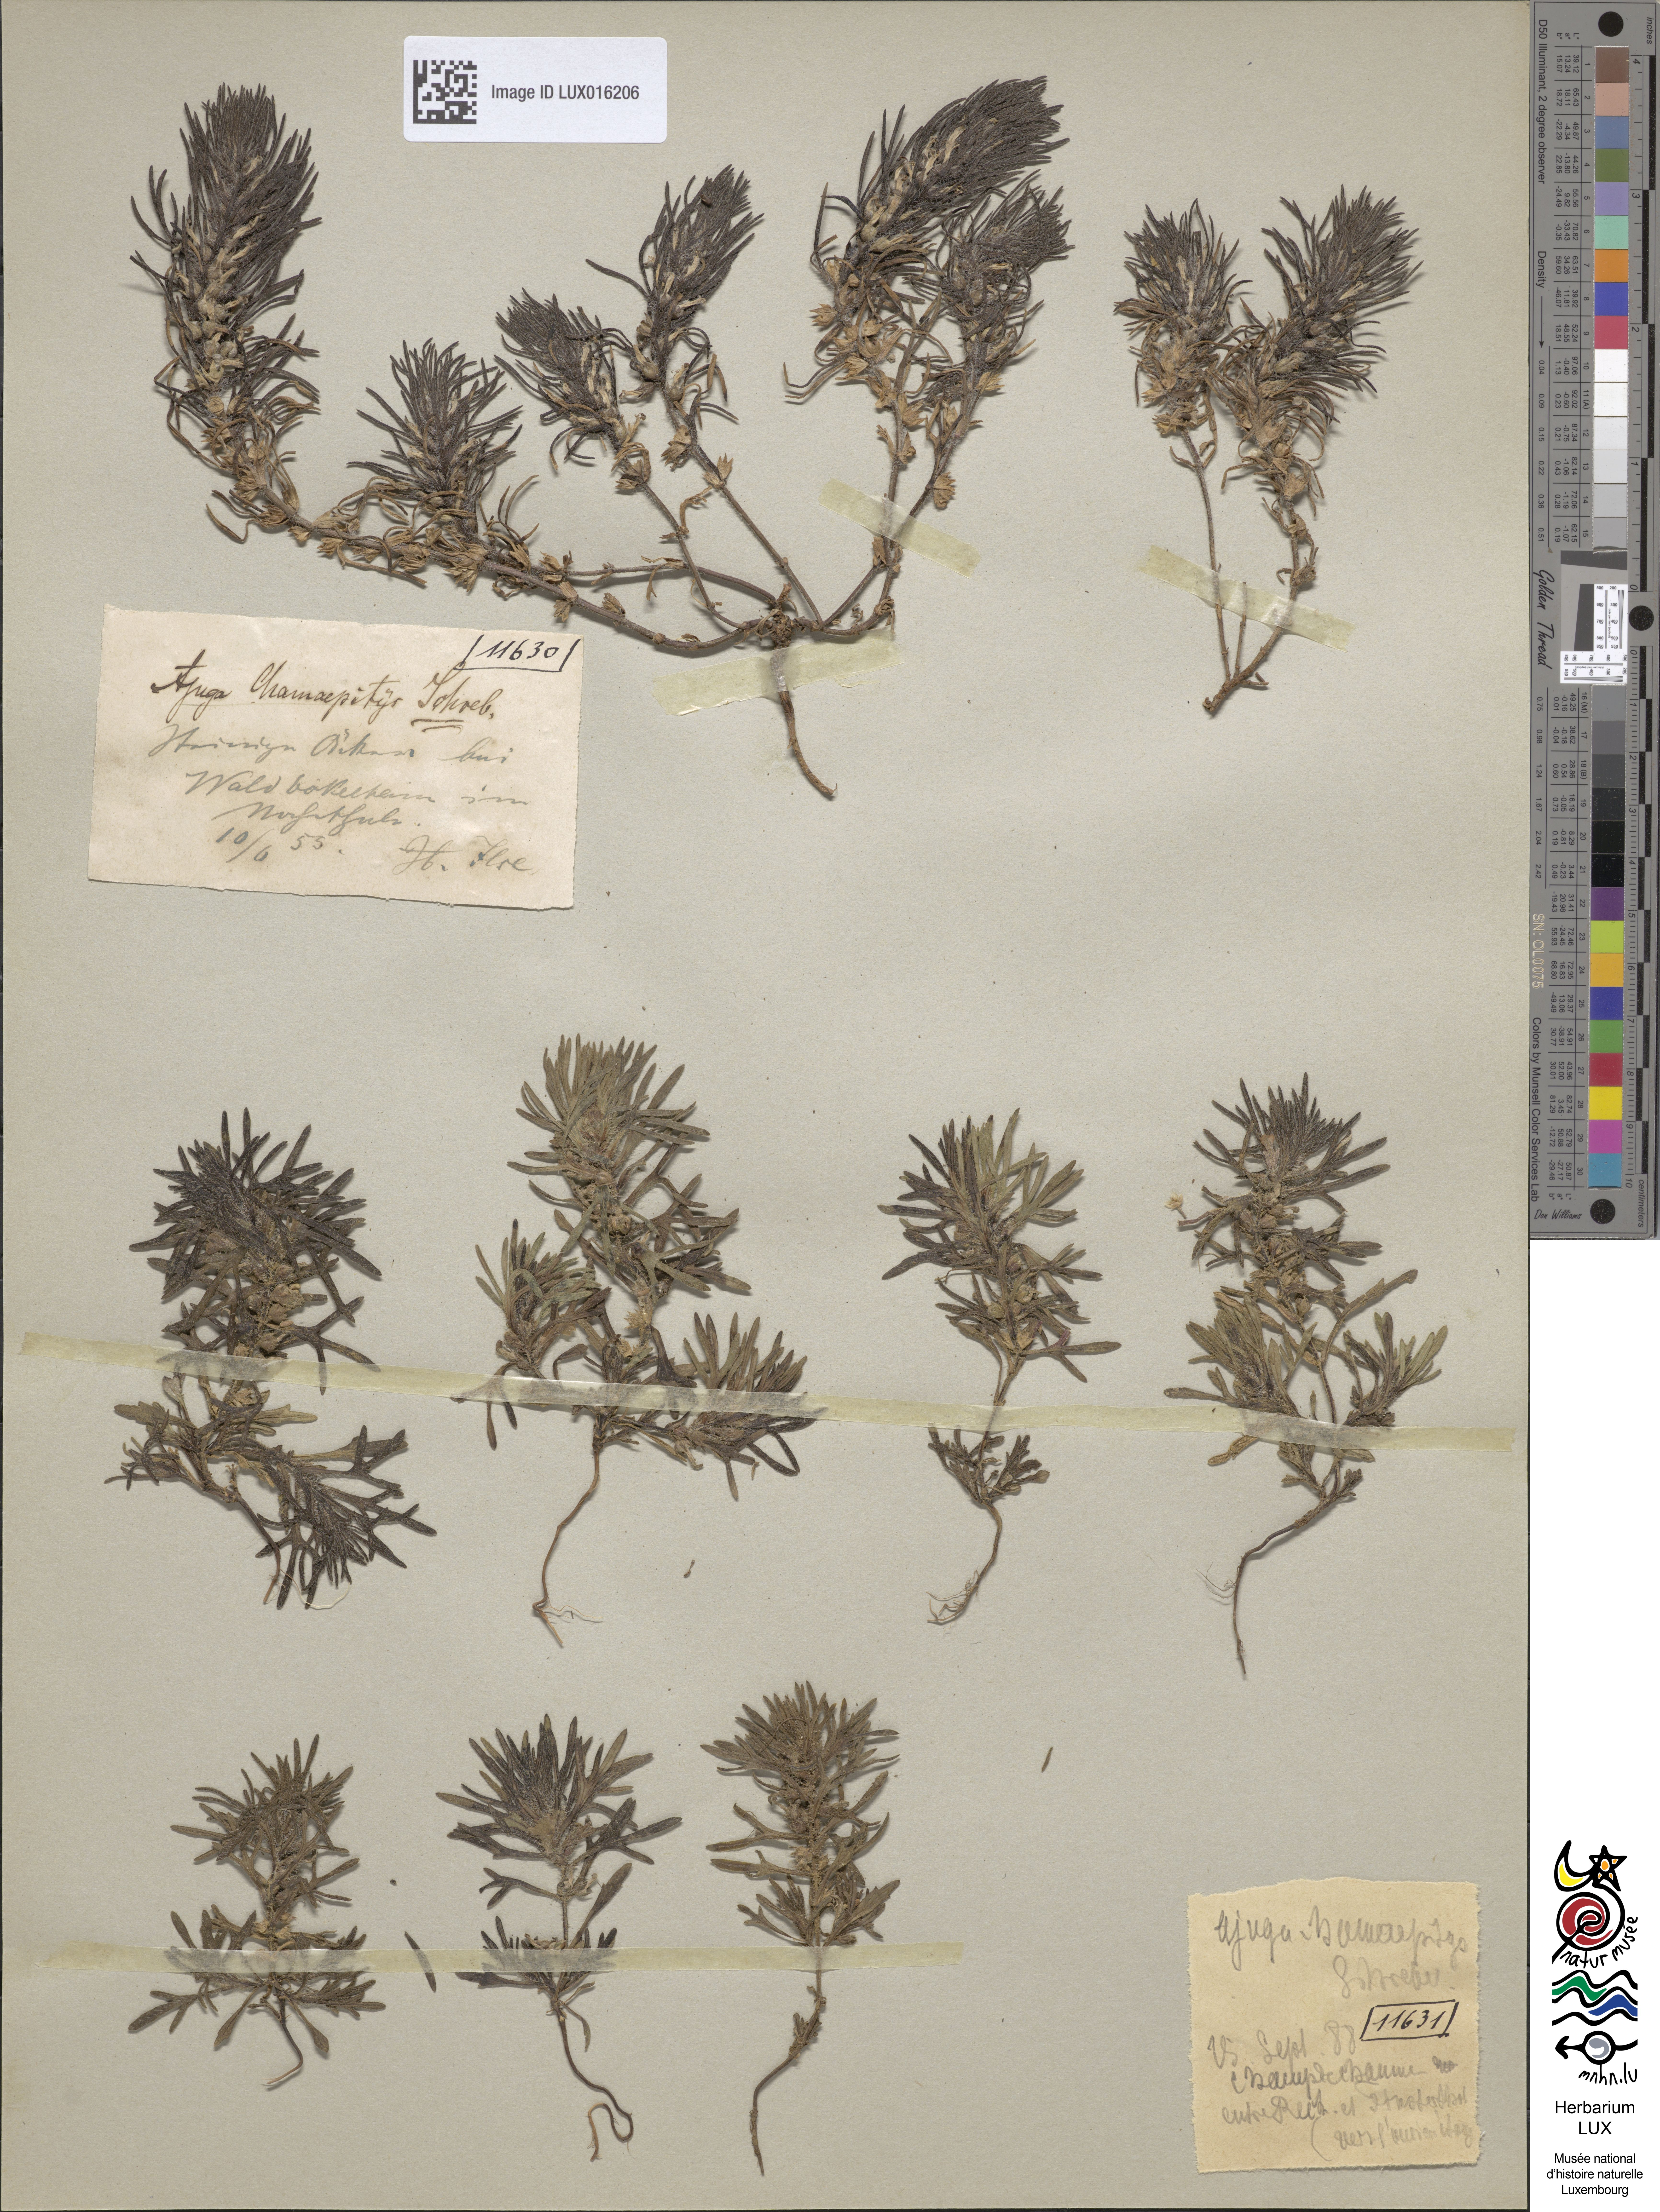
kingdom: Plantae
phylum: Tracheophyta
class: Magnoliopsida
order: Lamiales
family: Lamiaceae
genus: Ajuga
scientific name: Ajuga chamaepitys
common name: Ground-pine
